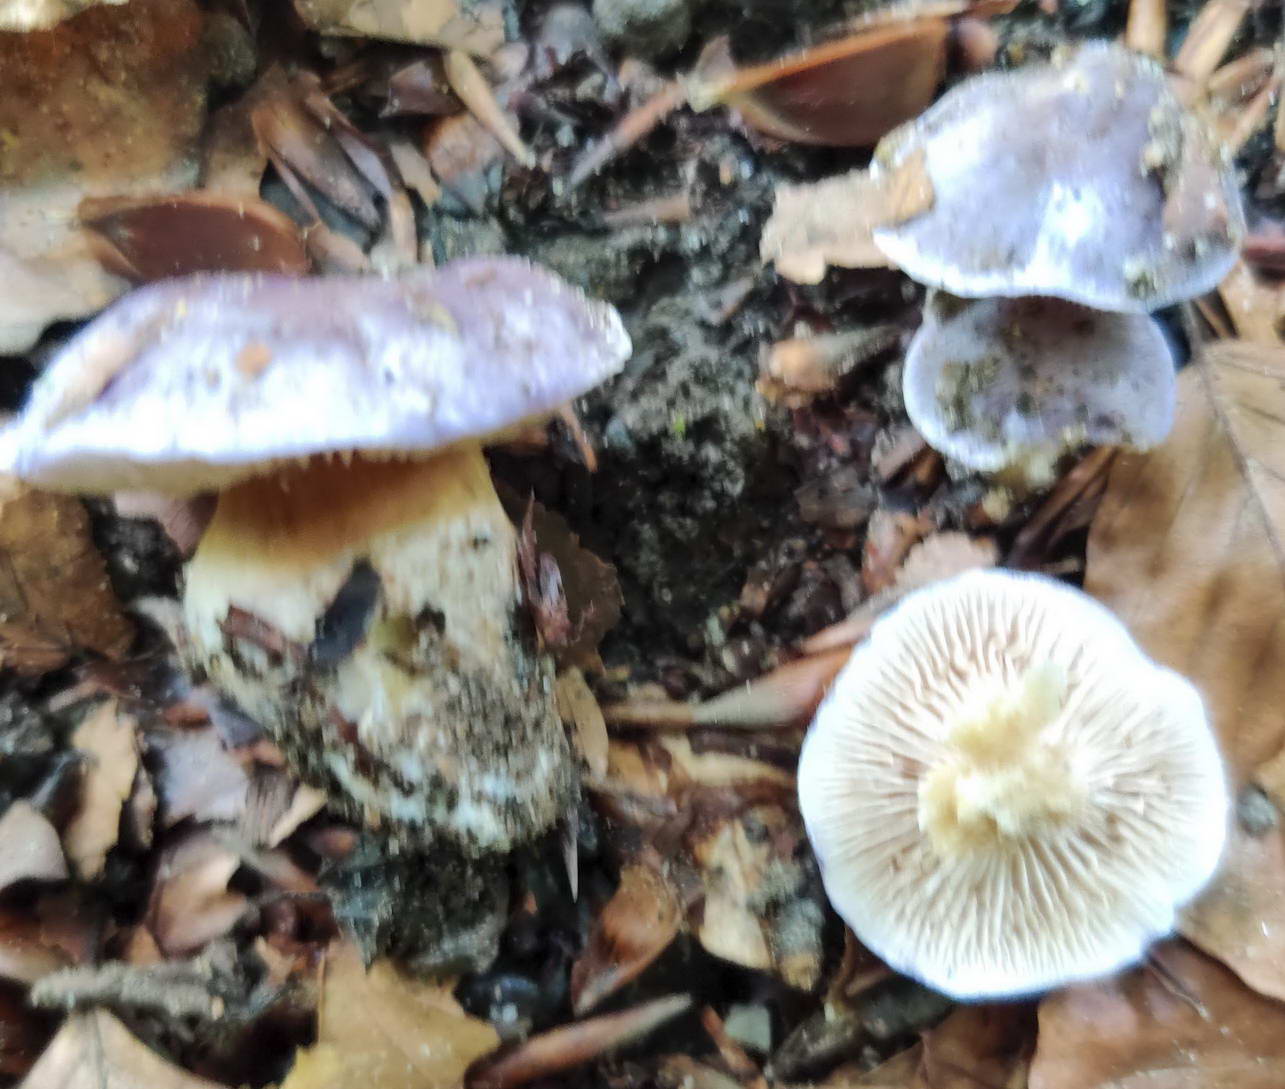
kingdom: Fungi
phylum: Basidiomycota
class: Agaricomycetes
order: Agaricales
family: Cortinariaceae
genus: Thaxterogaster
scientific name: Thaxterogaster croceocoeruleus
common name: blågullig slørhat
